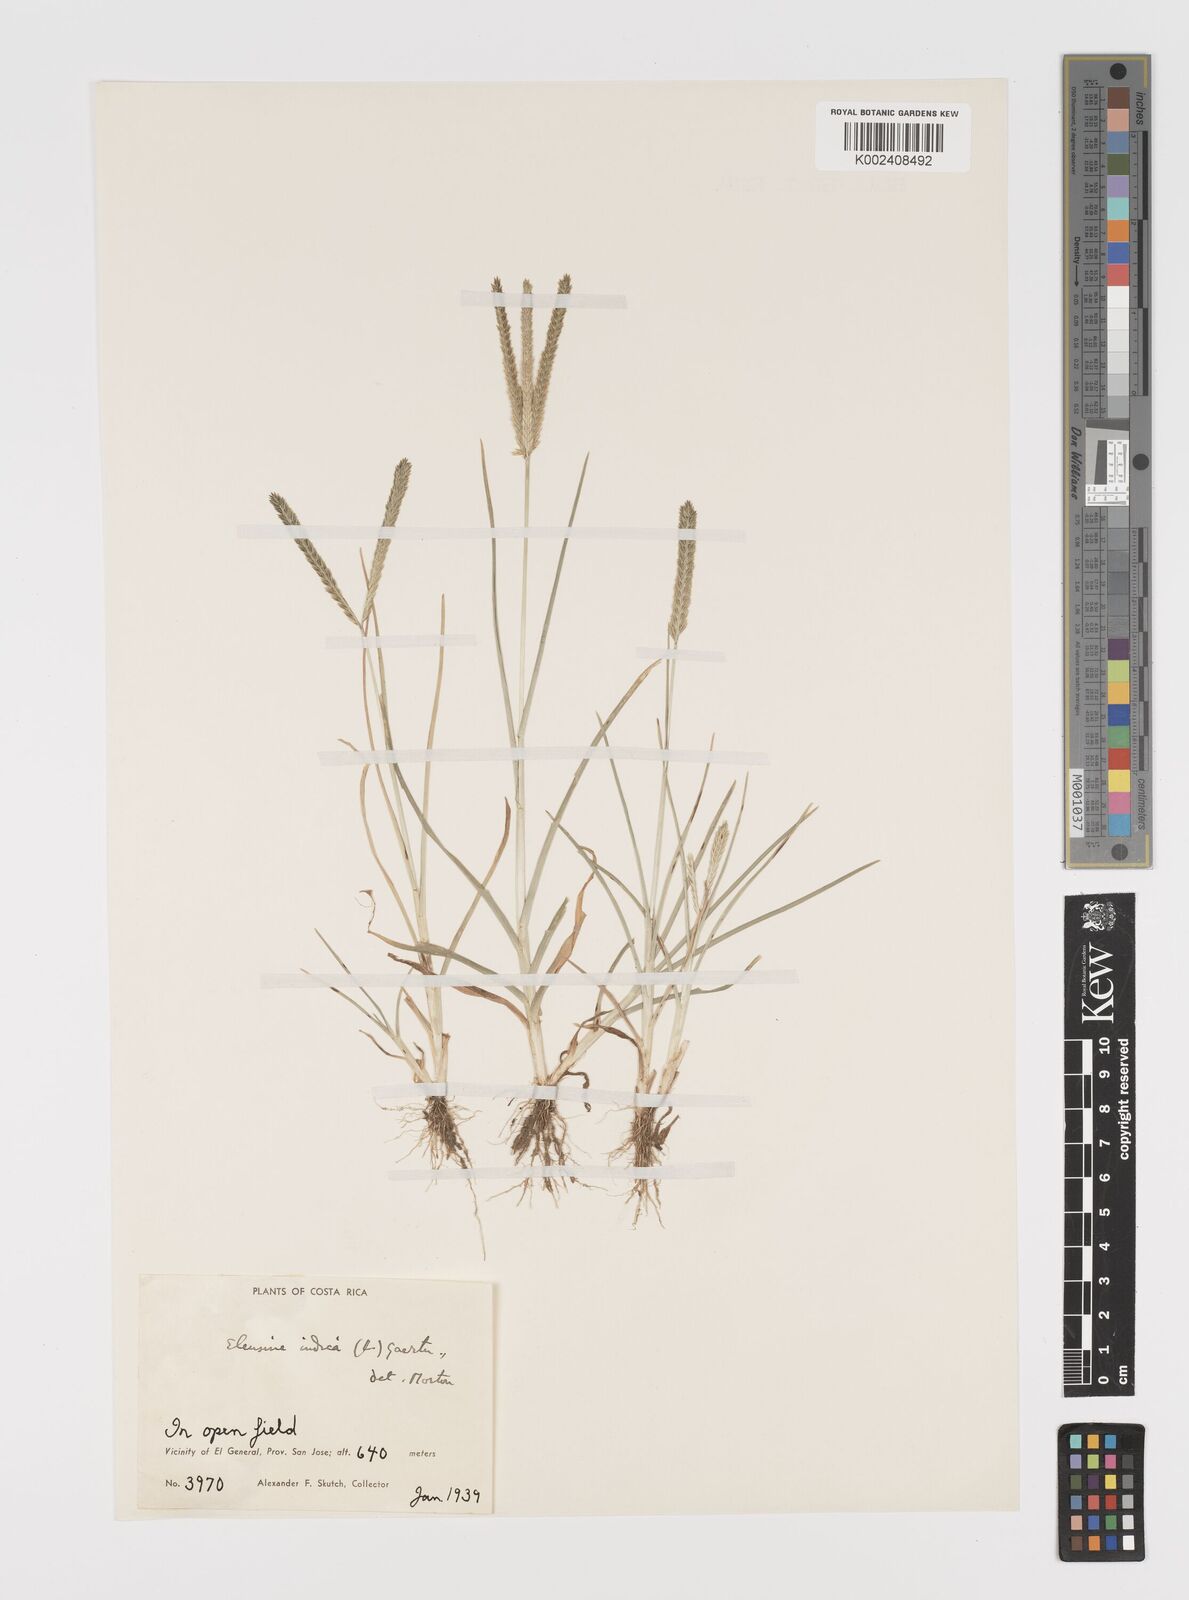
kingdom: Plantae
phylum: Tracheophyta
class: Liliopsida
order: Poales
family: Poaceae
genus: Eleusine
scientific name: Eleusine indica
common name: Yard-grass
